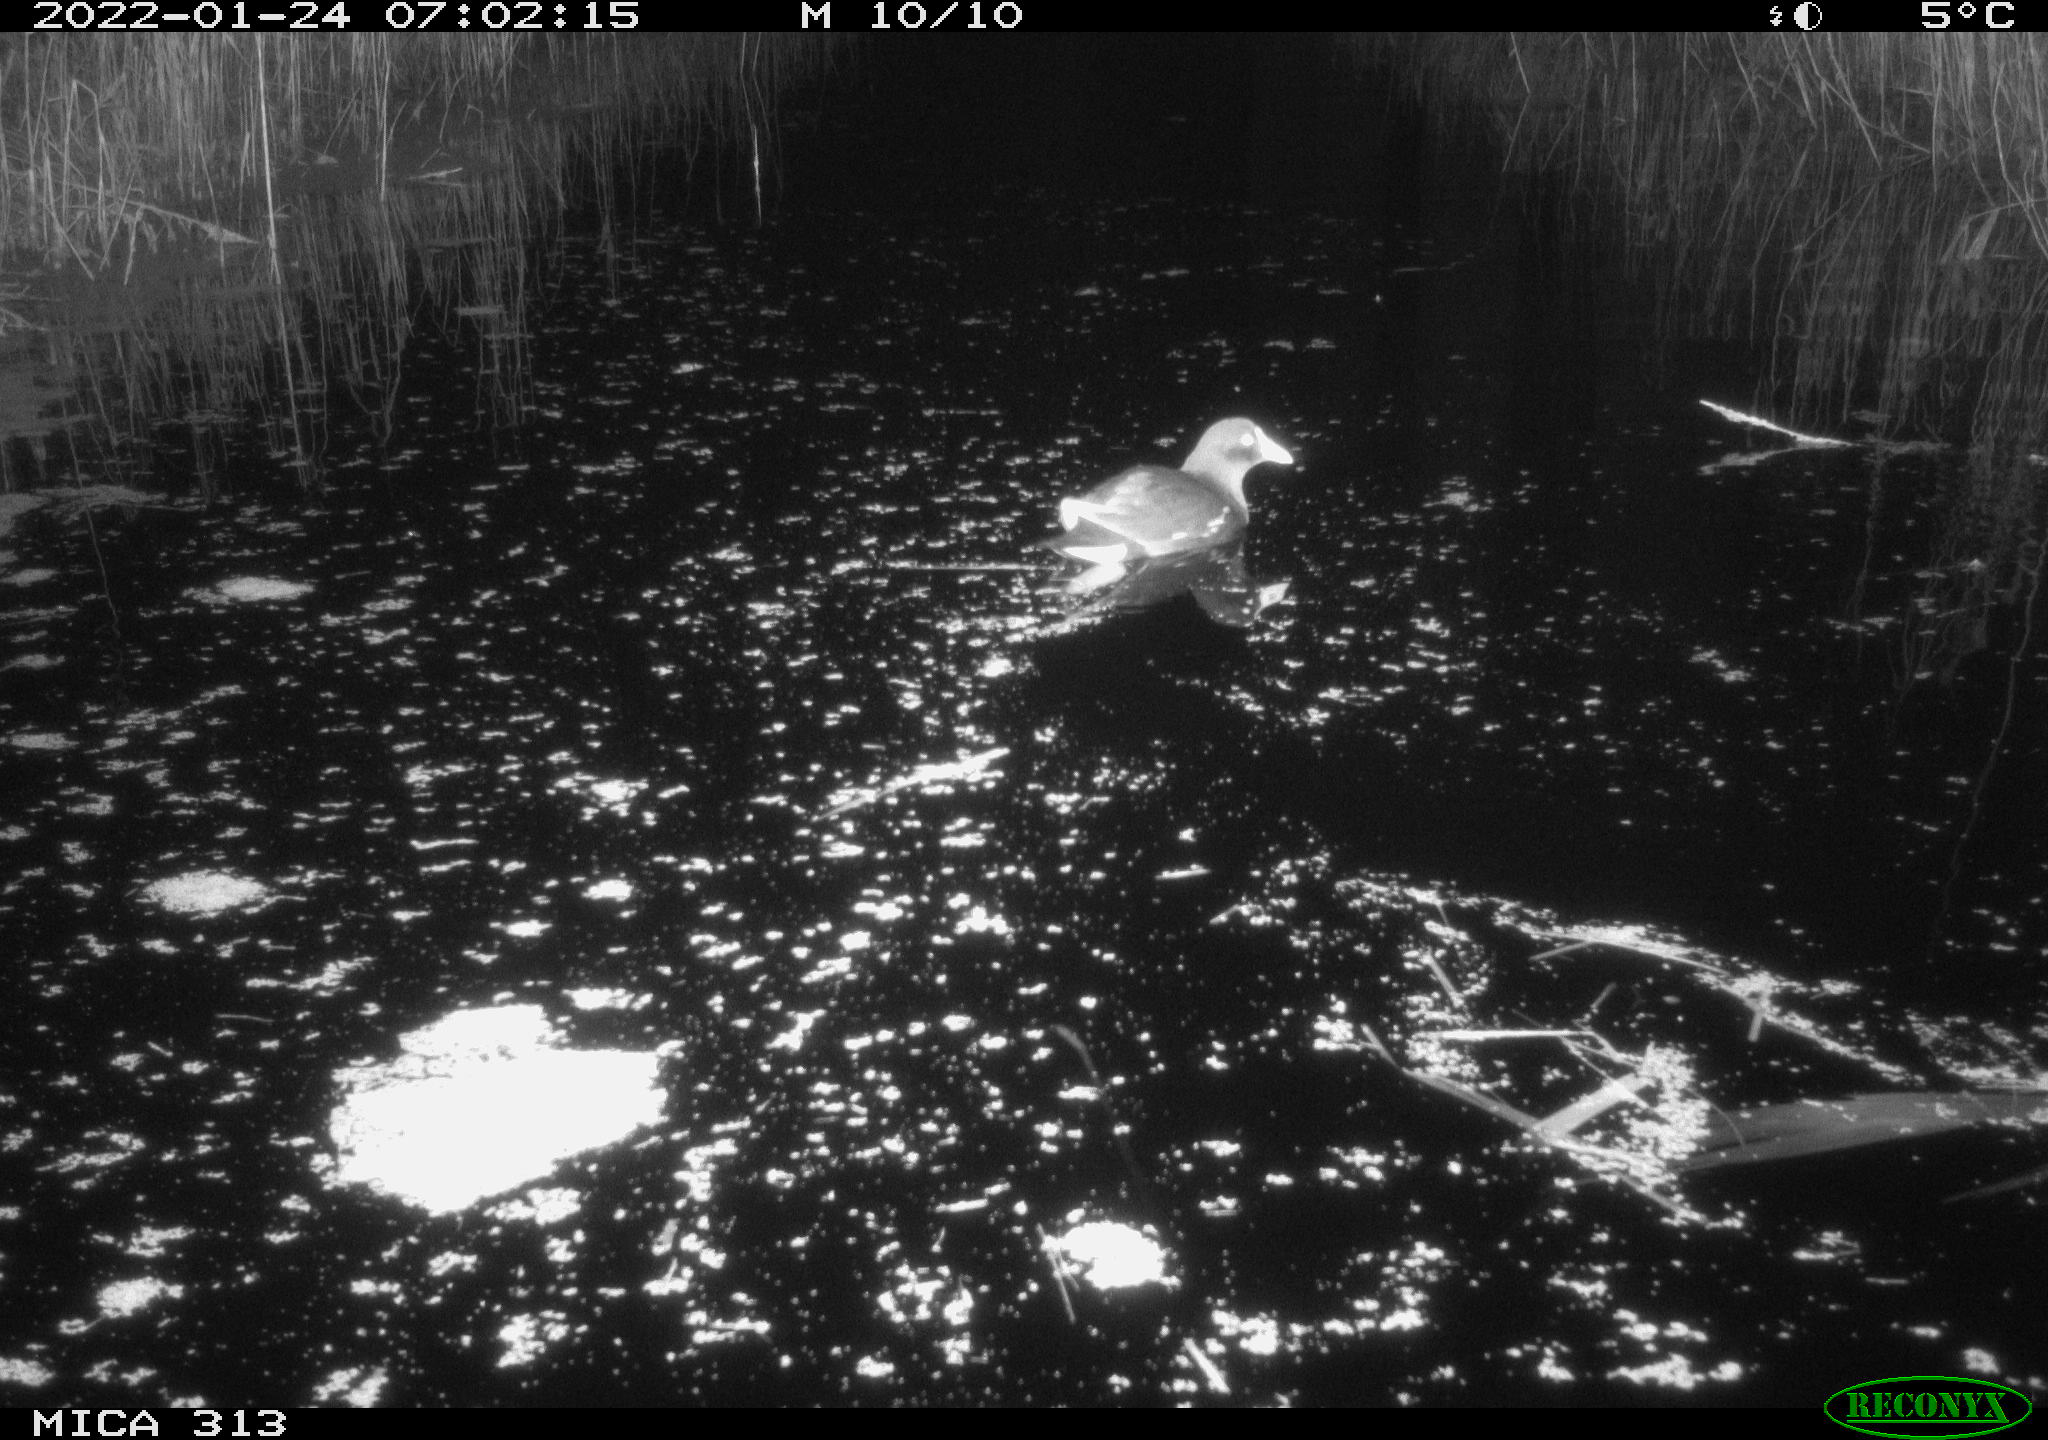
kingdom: Animalia
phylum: Chordata
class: Aves
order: Gruiformes
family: Rallidae
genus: Gallinula
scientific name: Gallinula chloropus
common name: Common moorhen
